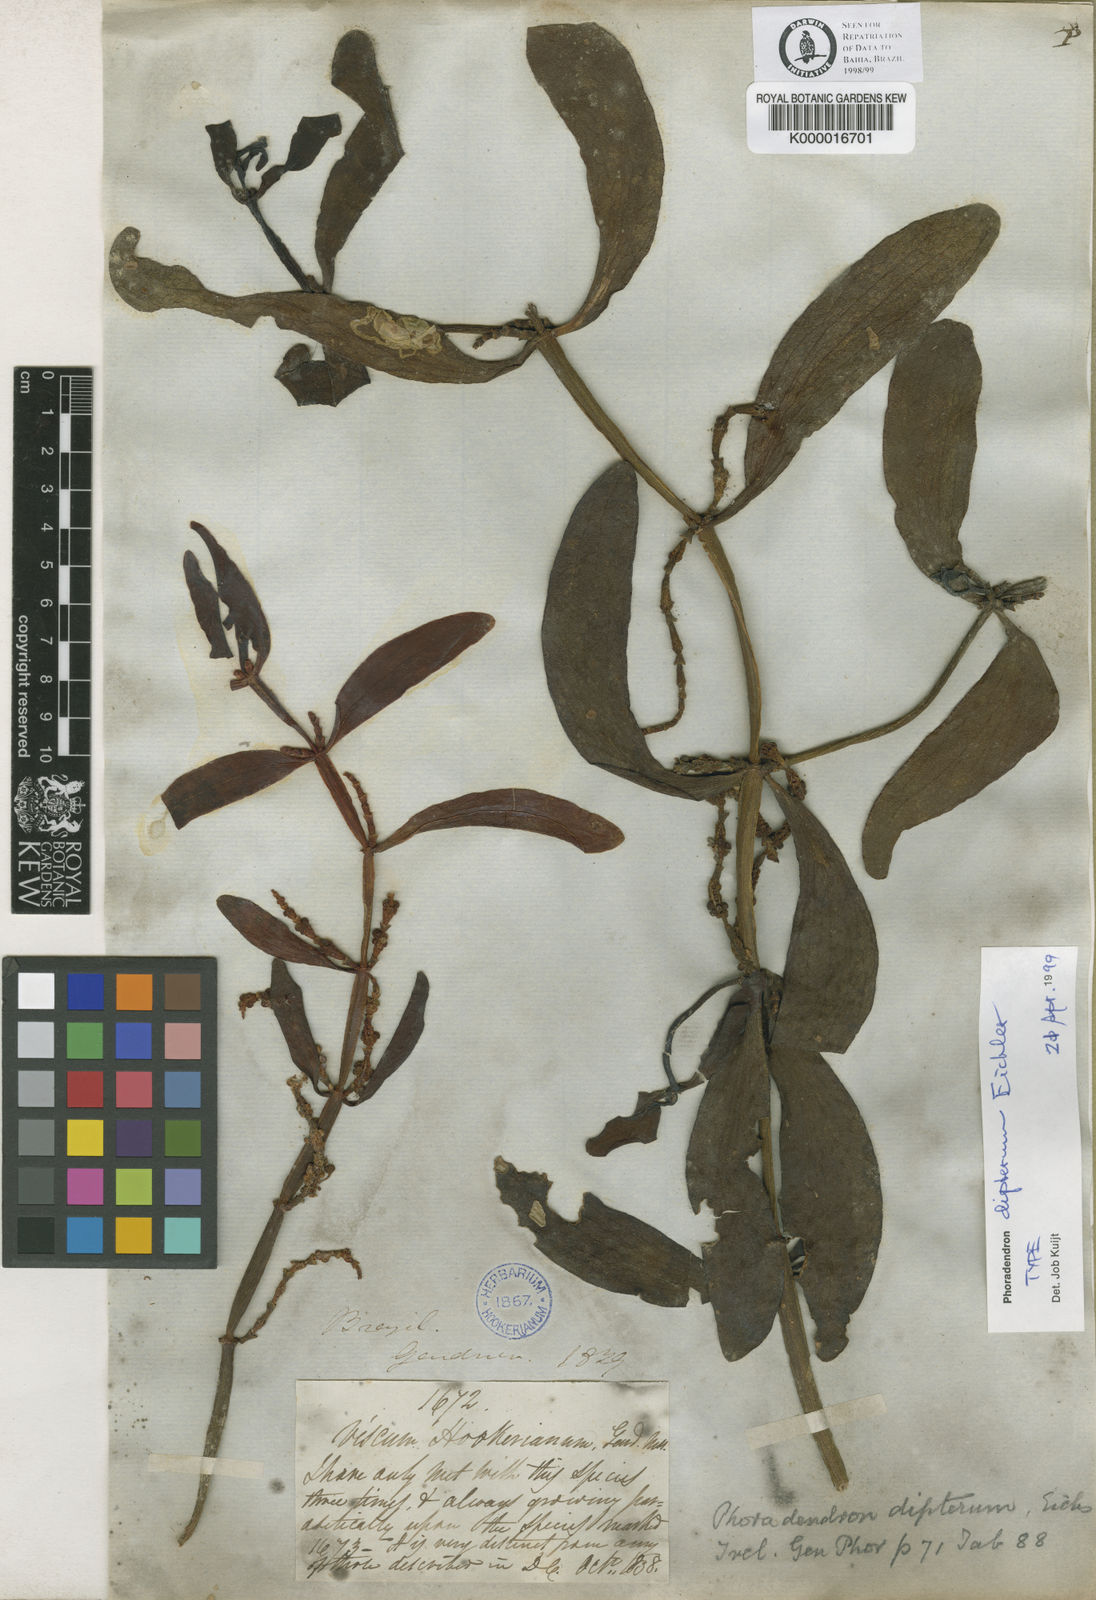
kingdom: Plantae
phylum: Tracheophyta
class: Magnoliopsida
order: Santalales
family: Viscaceae
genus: Phoradendron
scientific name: Phoradendron dipterum
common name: Fourpart mistletoe
